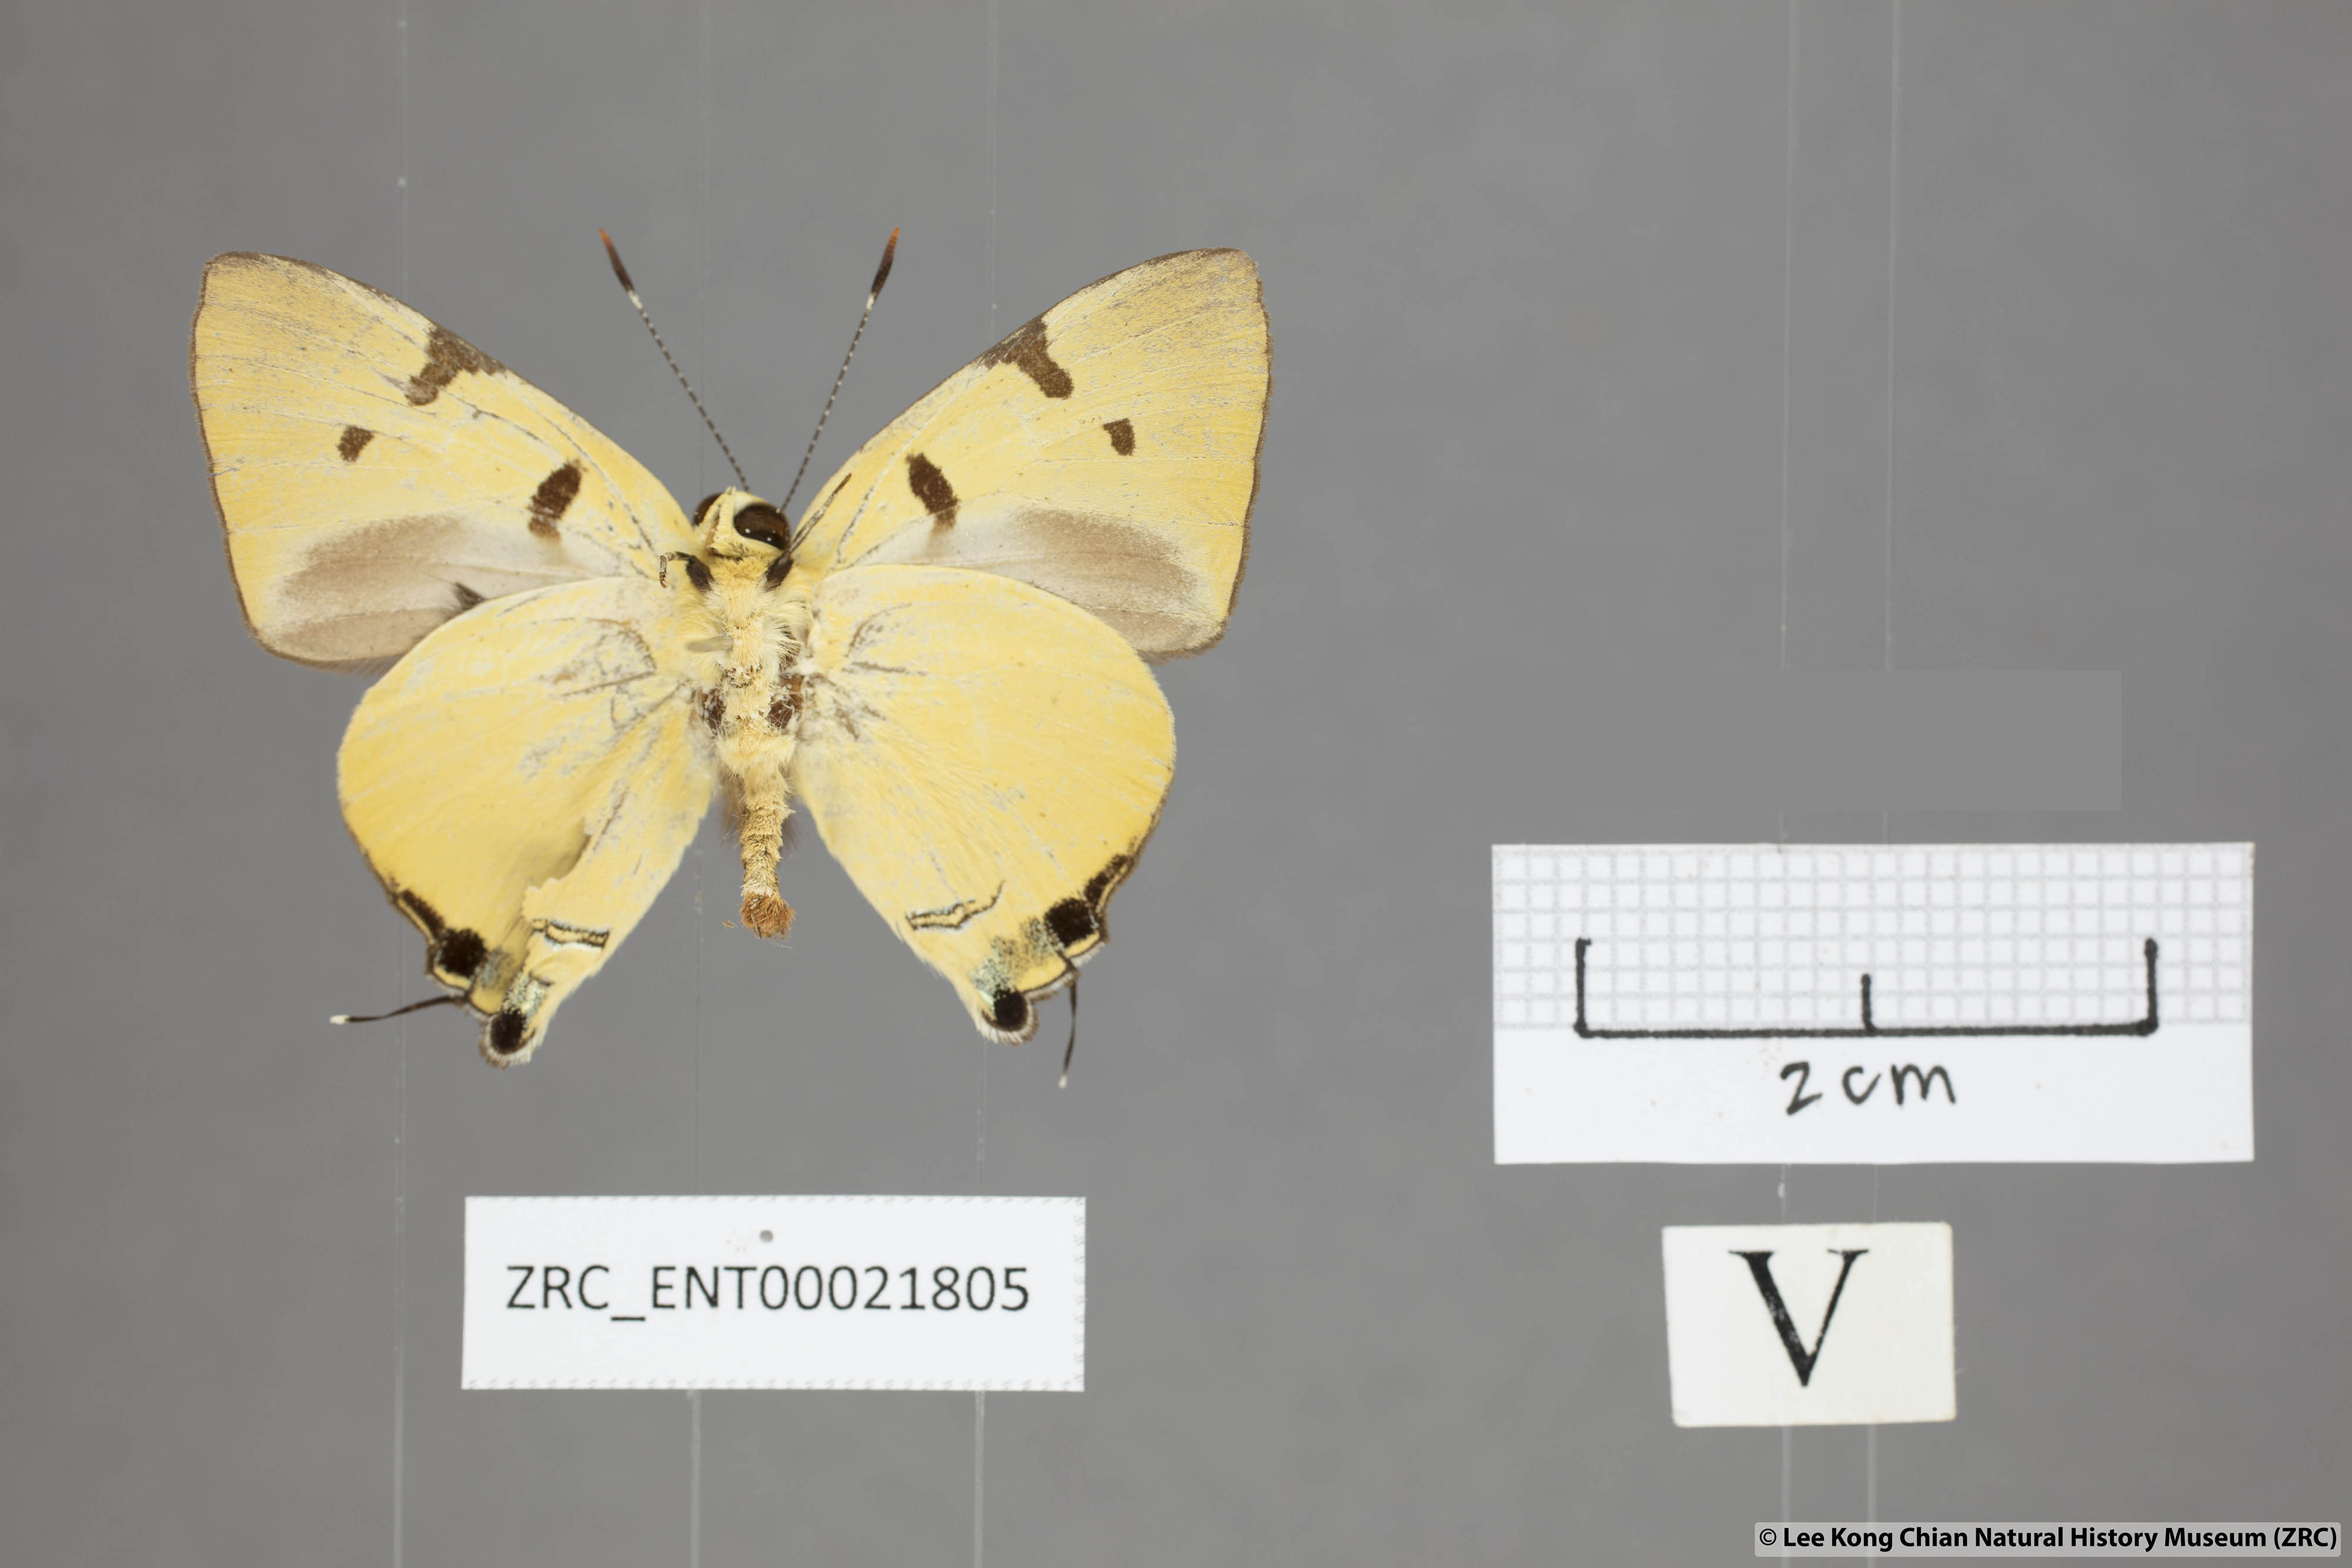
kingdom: Animalia
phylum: Arthropoda
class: Insecta
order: Lepidoptera
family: Lycaenidae
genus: Rapala
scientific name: Rapala domitia
